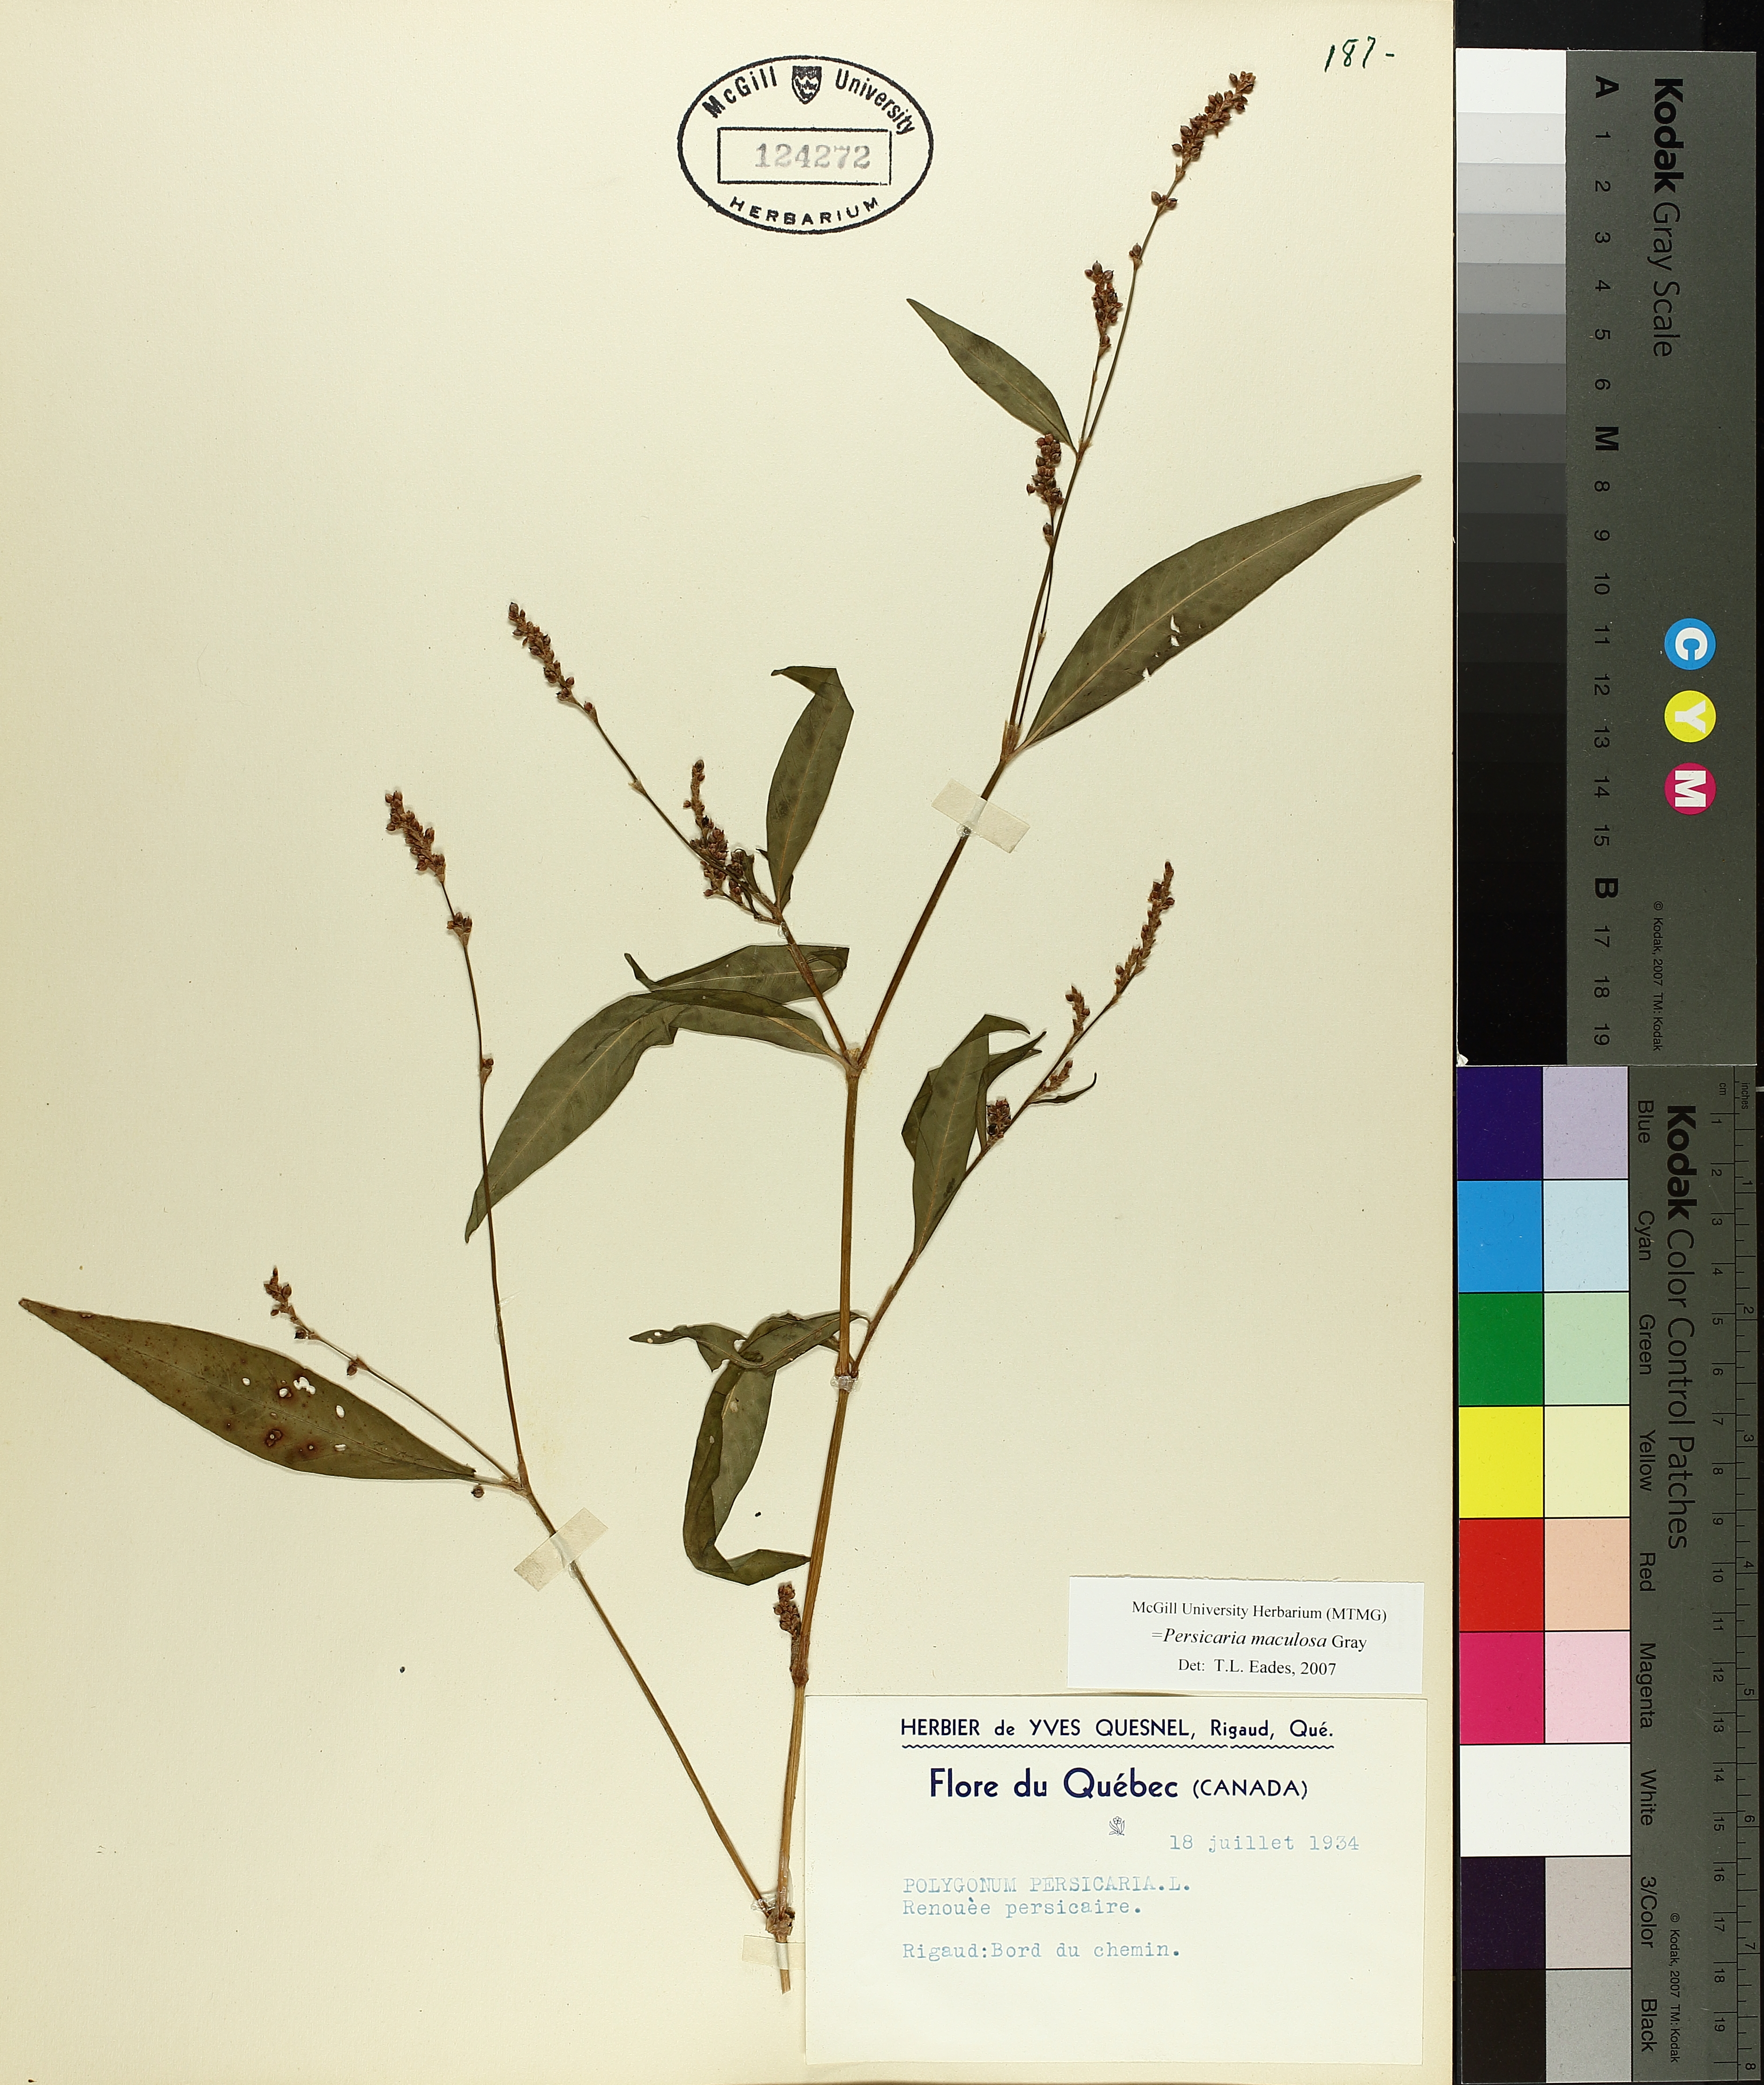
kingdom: Plantae
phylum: Tracheophyta
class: Magnoliopsida
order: Caryophyllales
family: Polygonaceae
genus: Persicaria
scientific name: Persicaria maculosa
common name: Redshank
